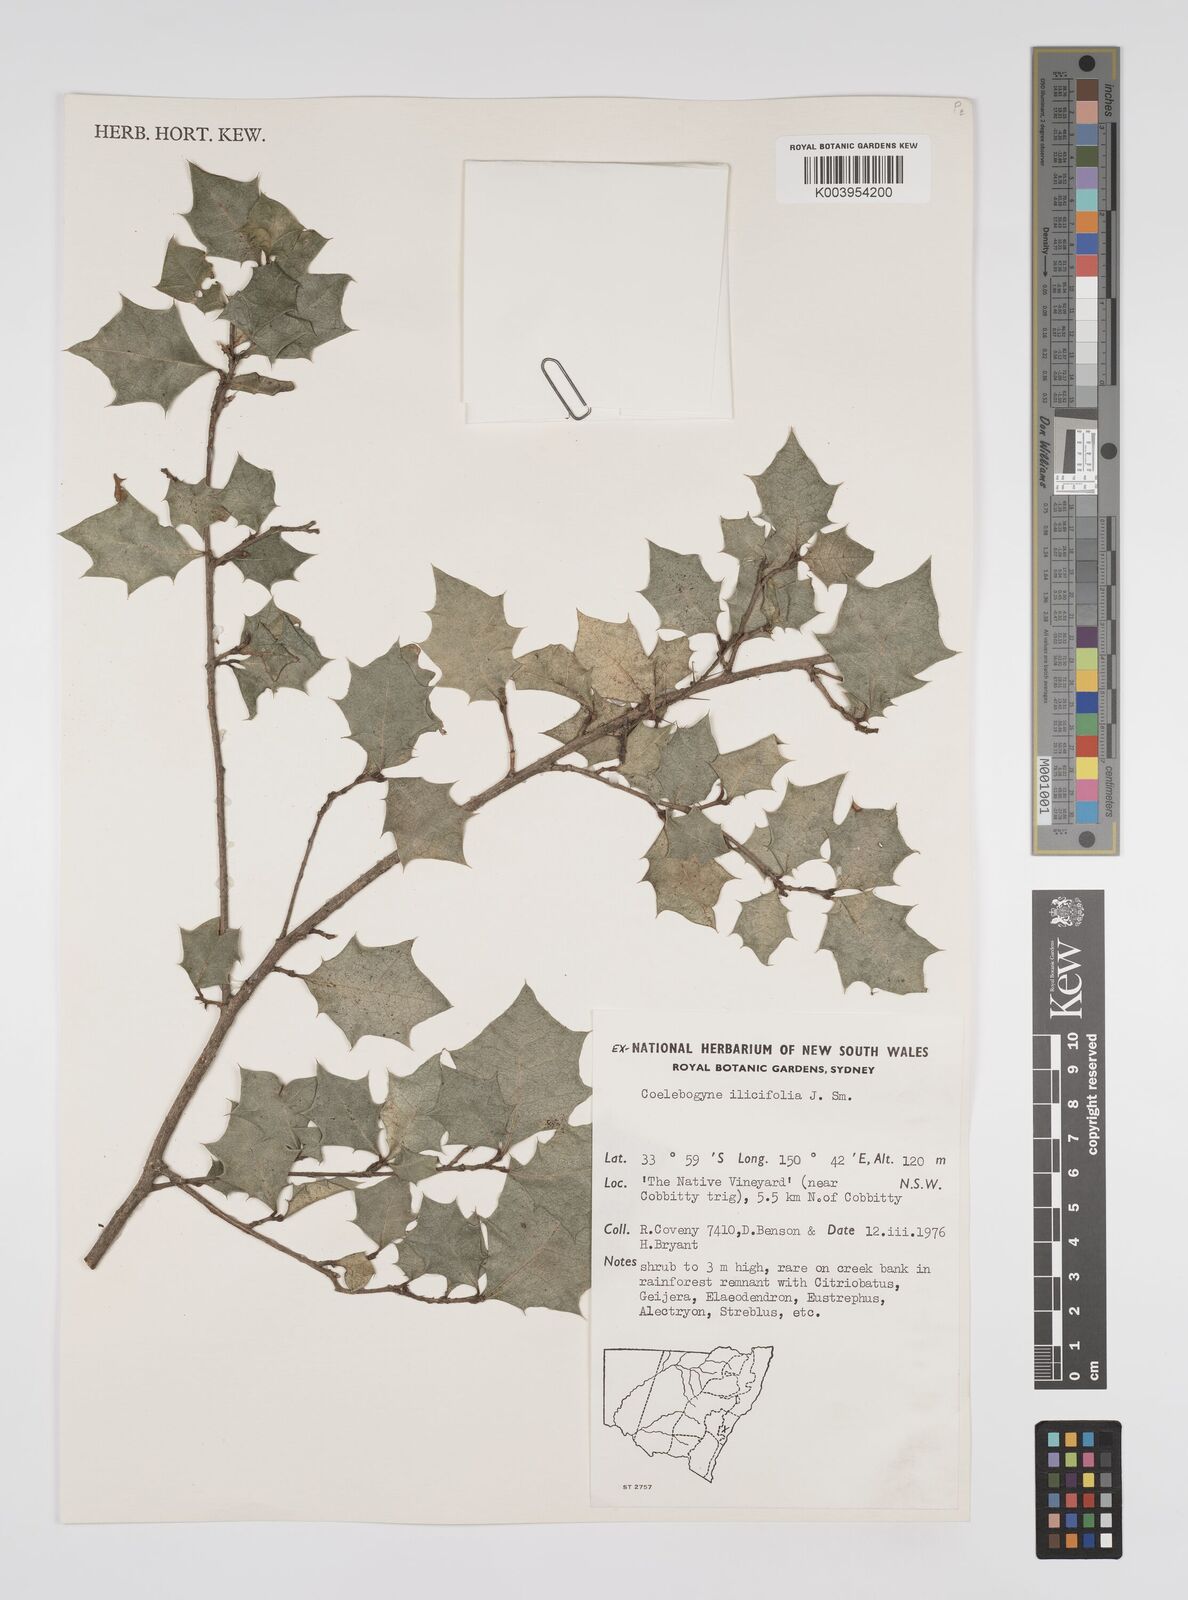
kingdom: Plantae
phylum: Tracheophyta
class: Magnoliopsida
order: Malpighiales
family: Euphorbiaceae
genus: Alchornea
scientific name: Alchornea ilicifolia
